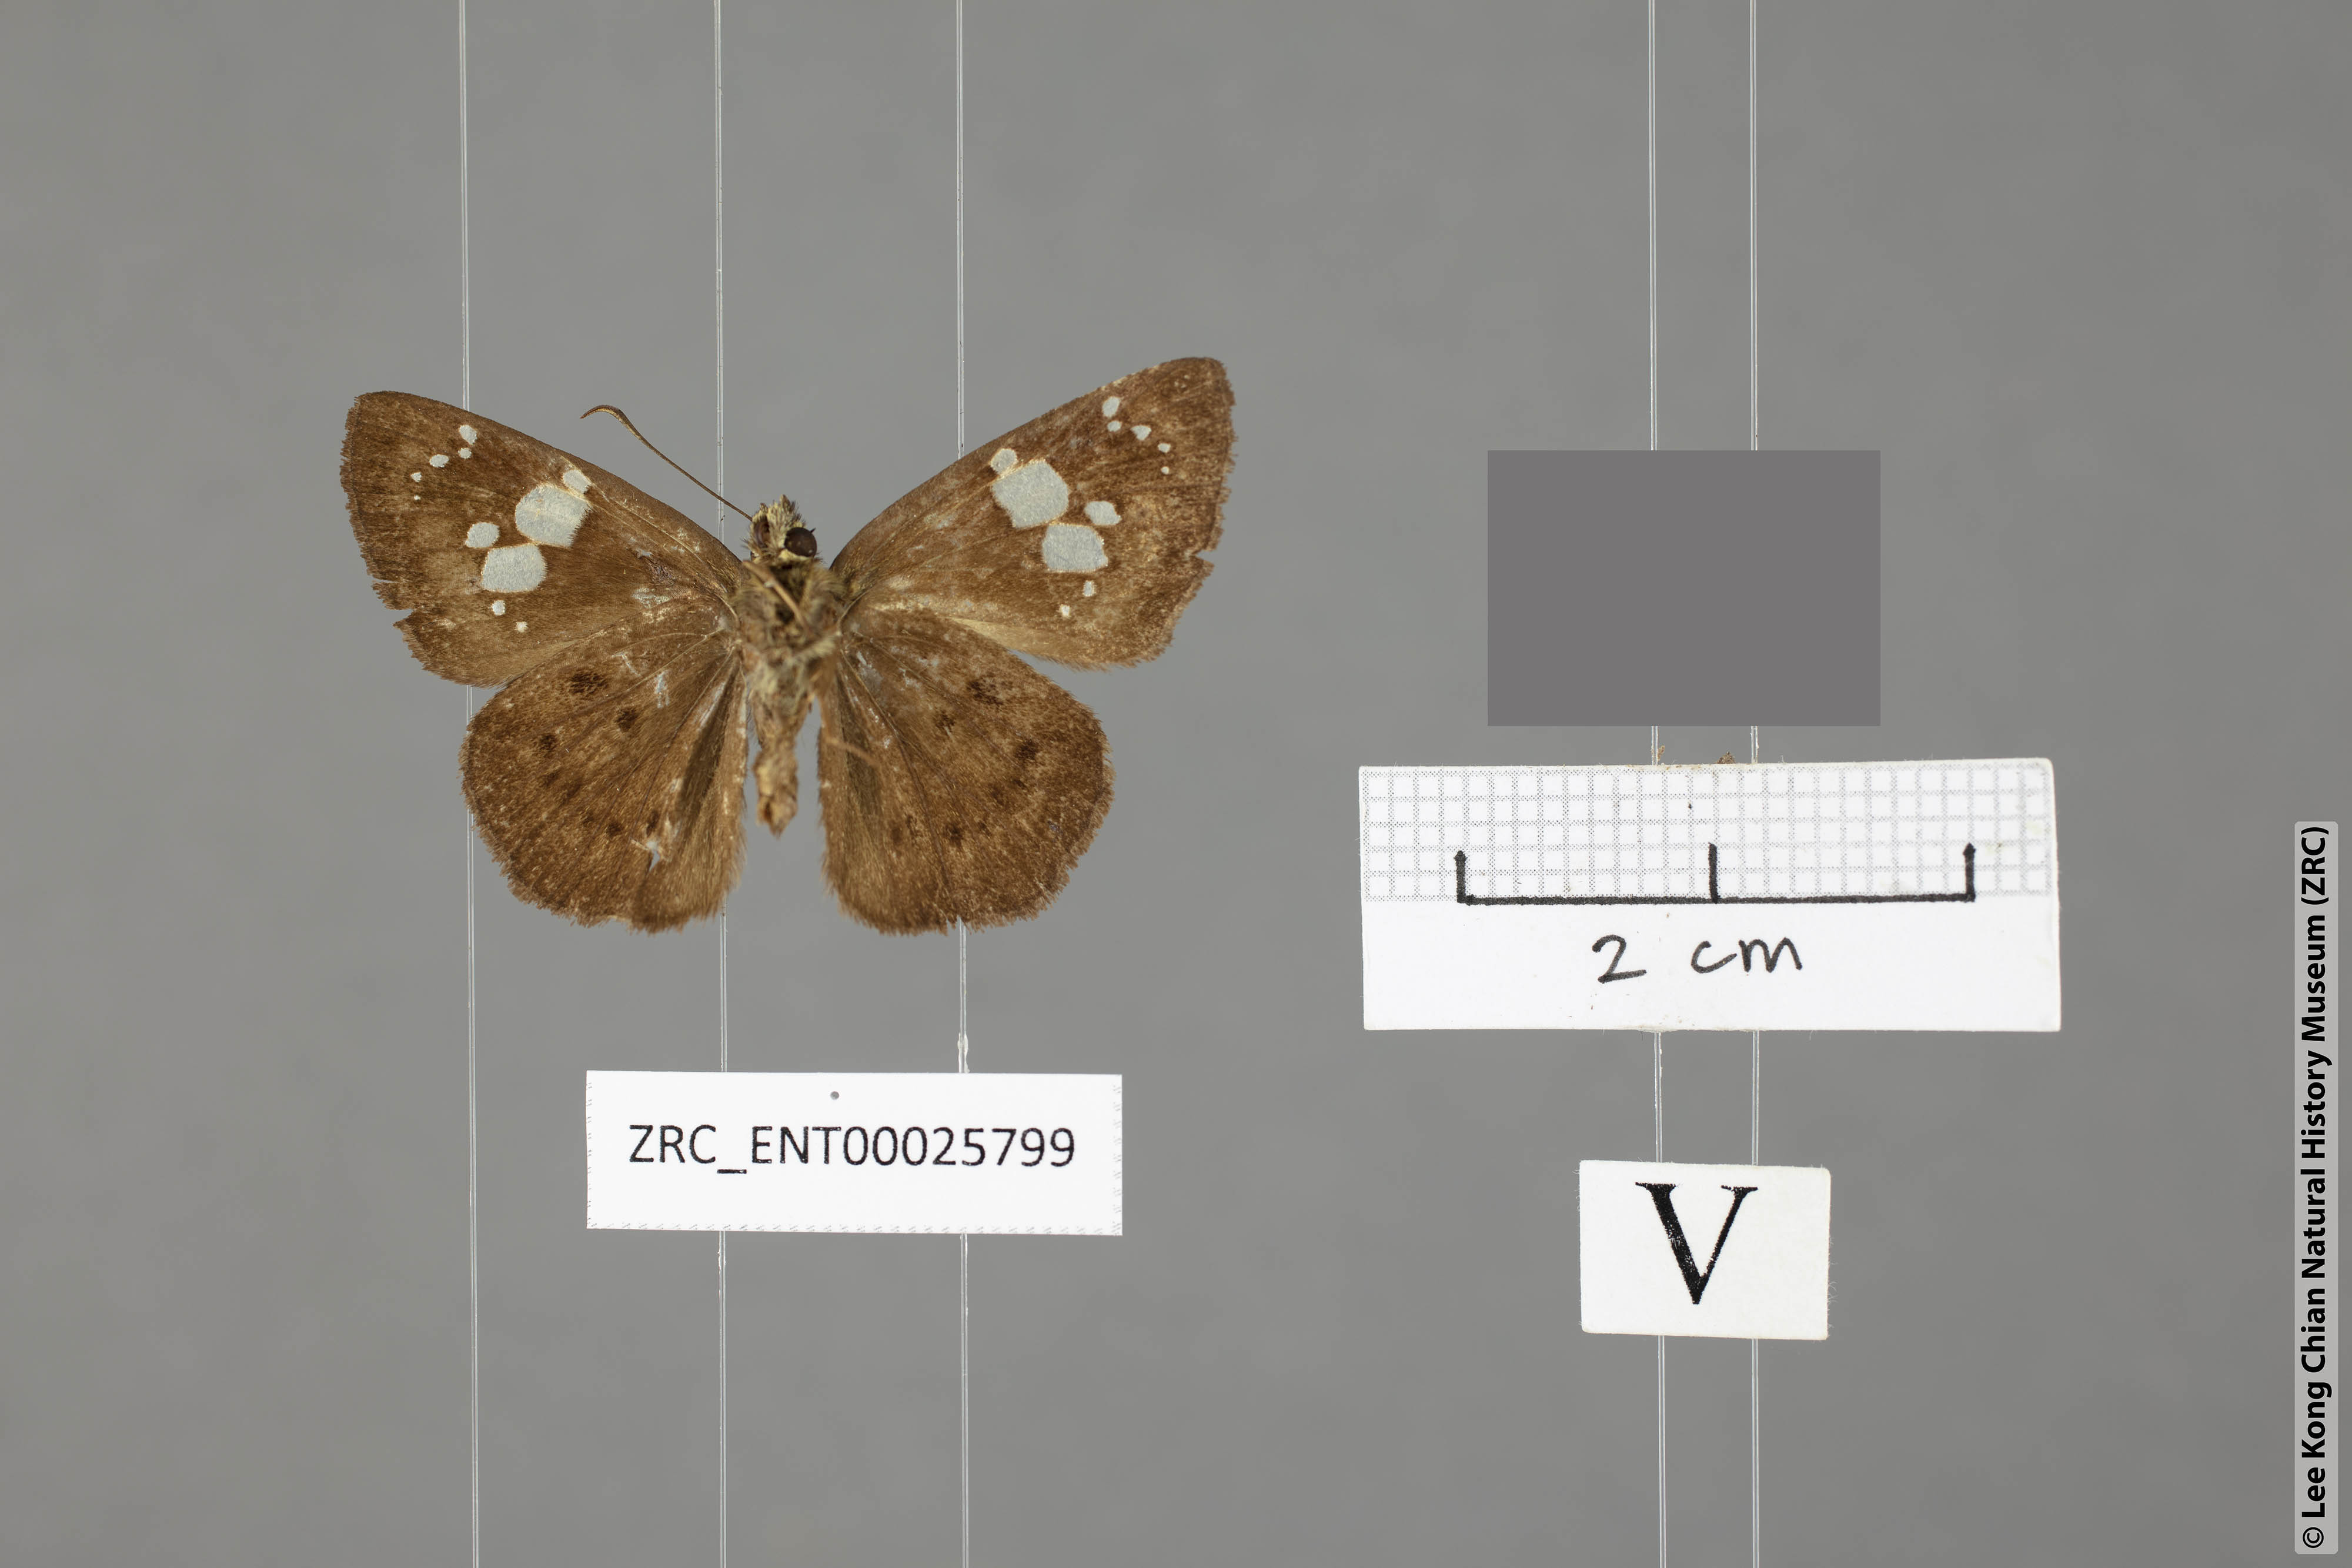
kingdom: Animalia
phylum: Arthropoda
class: Insecta
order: Lepidoptera
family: Hesperiidae
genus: Coladenia
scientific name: Coladenia agni
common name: Conjoin-spotted pied flat
